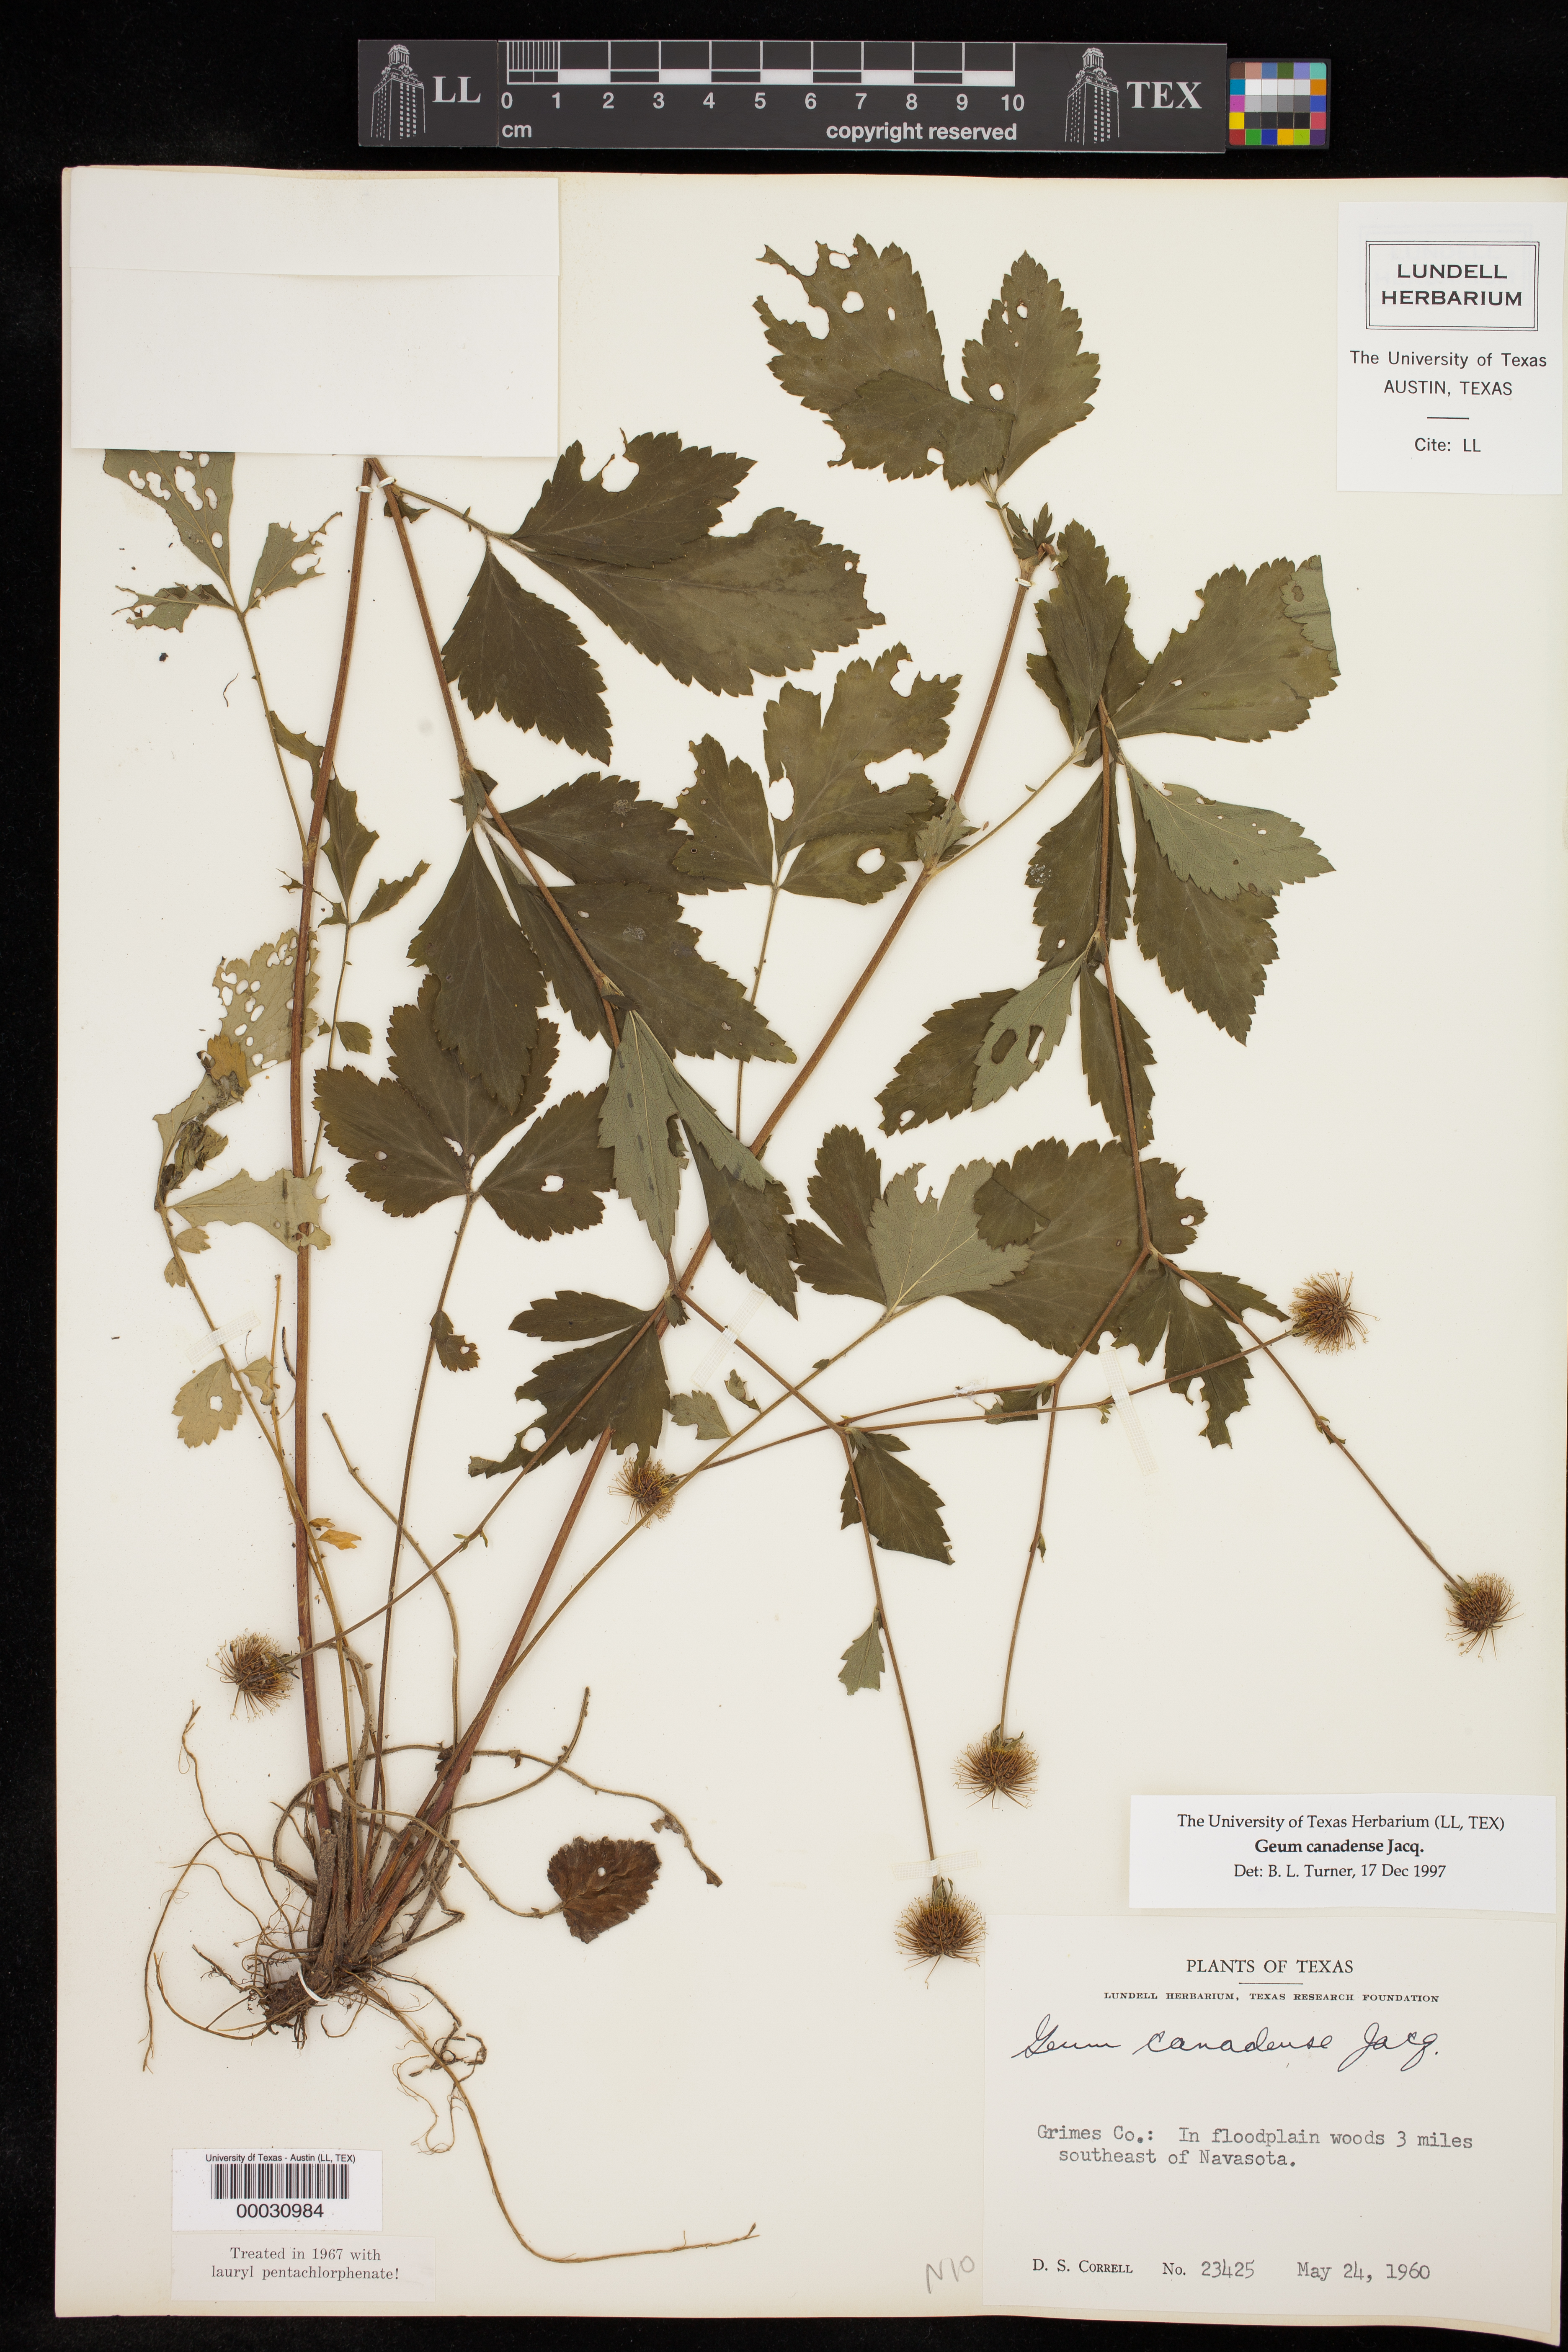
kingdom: Plantae
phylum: Tracheophyta
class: Magnoliopsida
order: Rosales
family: Rosaceae
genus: Geum
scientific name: Geum canadense
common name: White avens
